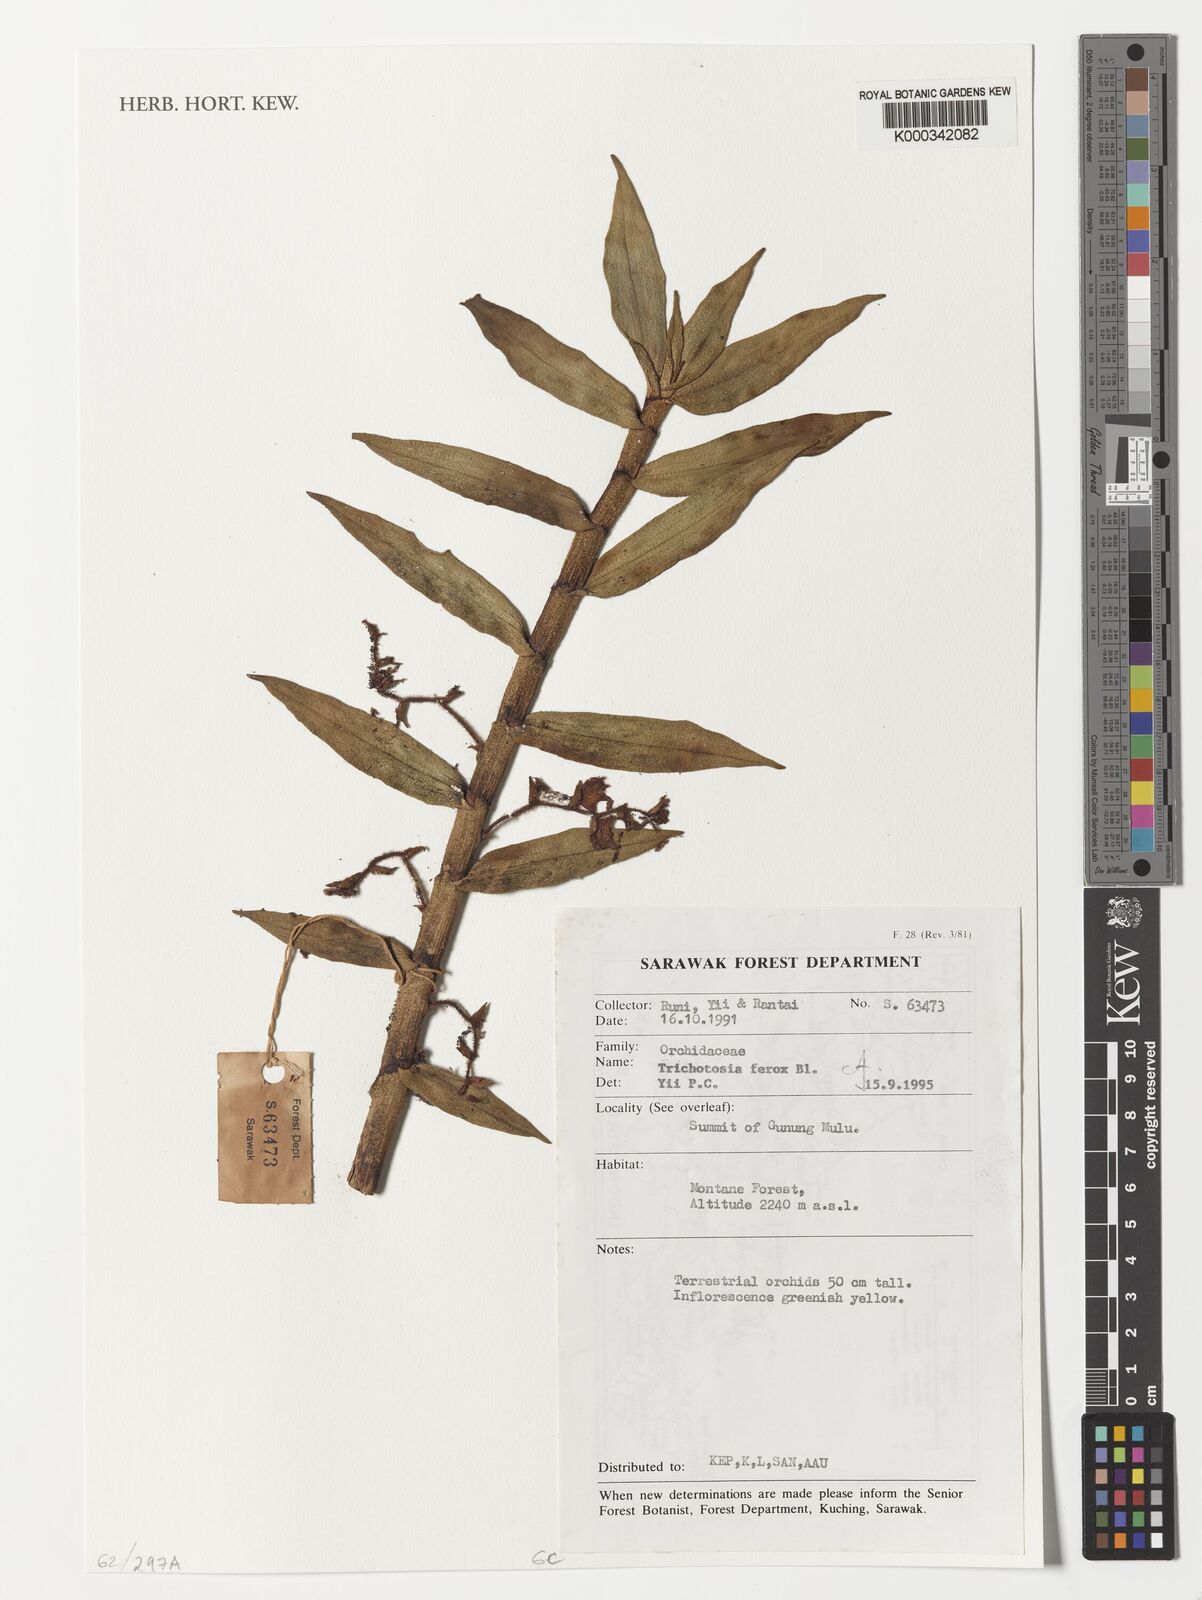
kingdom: Plantae
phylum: Tracheophyta
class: Liliopsida
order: Asparagales
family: Orchidaceae
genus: Trichotosia
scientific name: Trichotosia ferox
